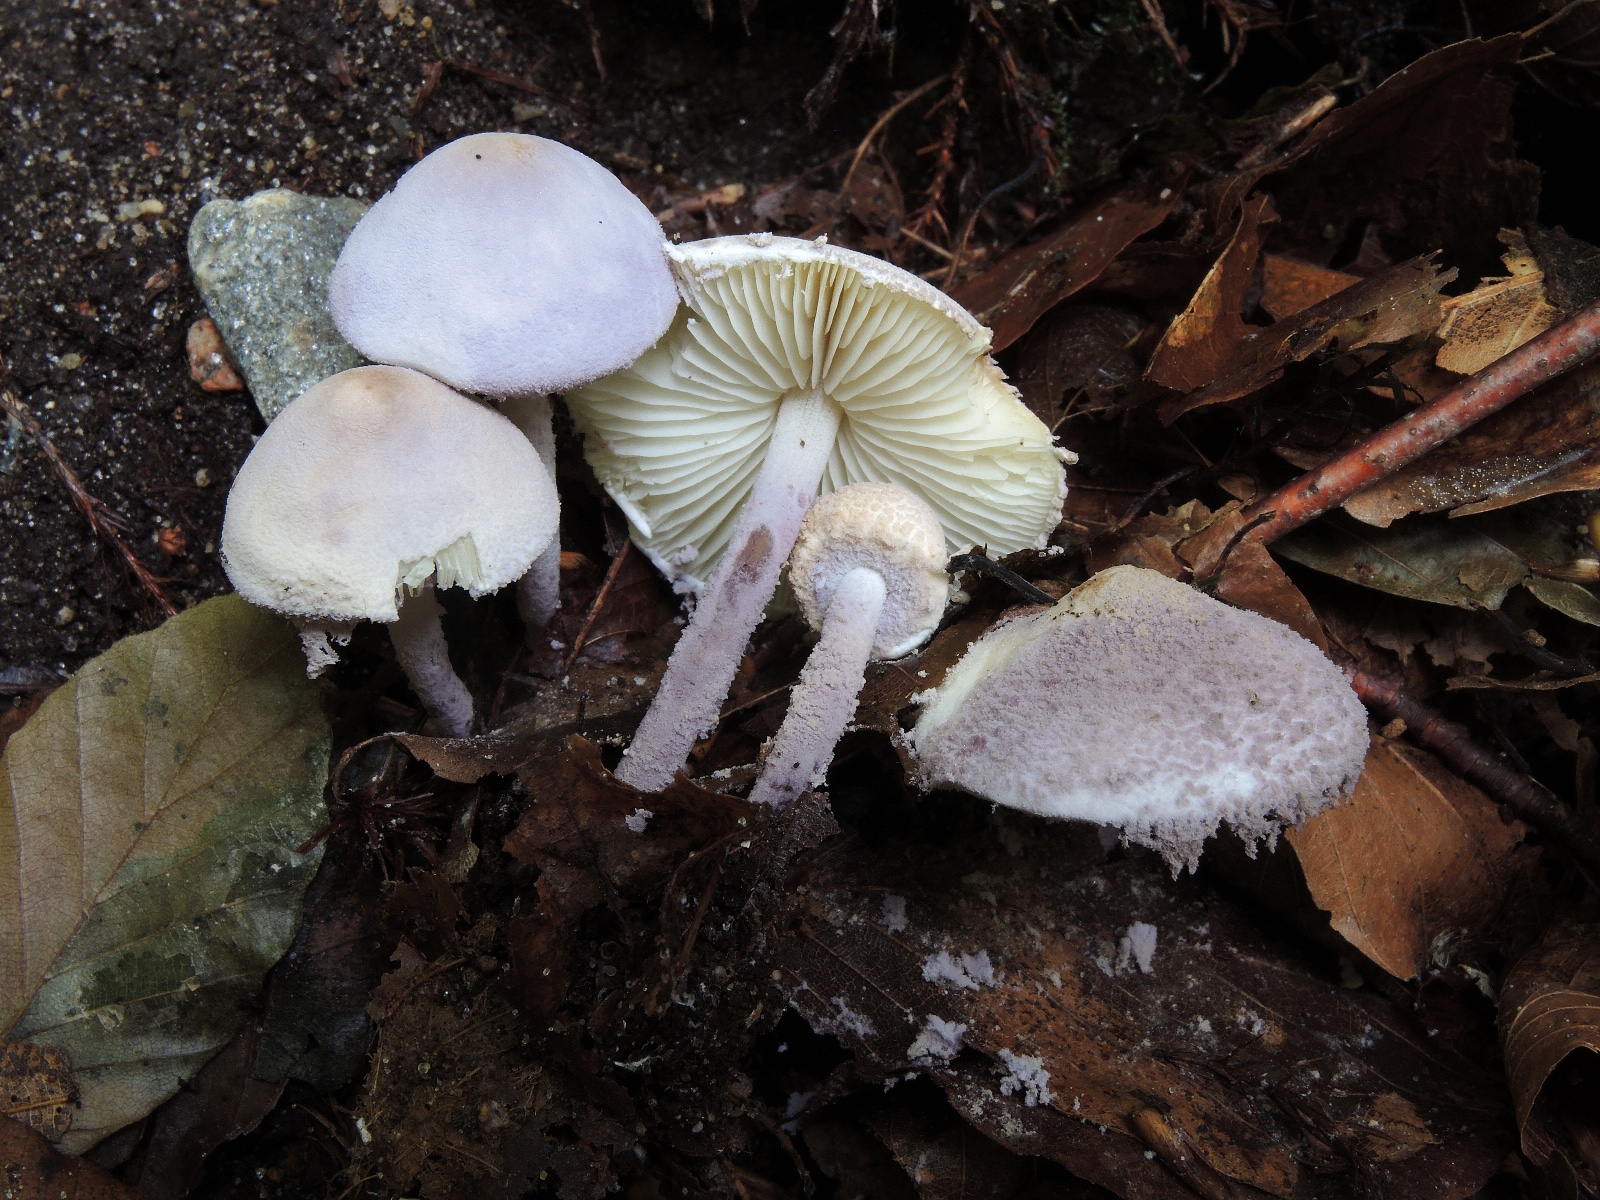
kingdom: Fungi
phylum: Basidiomycota
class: Agaricomycetes
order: Agaricales
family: Agaricaceae
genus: Cystolepiota
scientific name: Cystolepiota bucknallii
